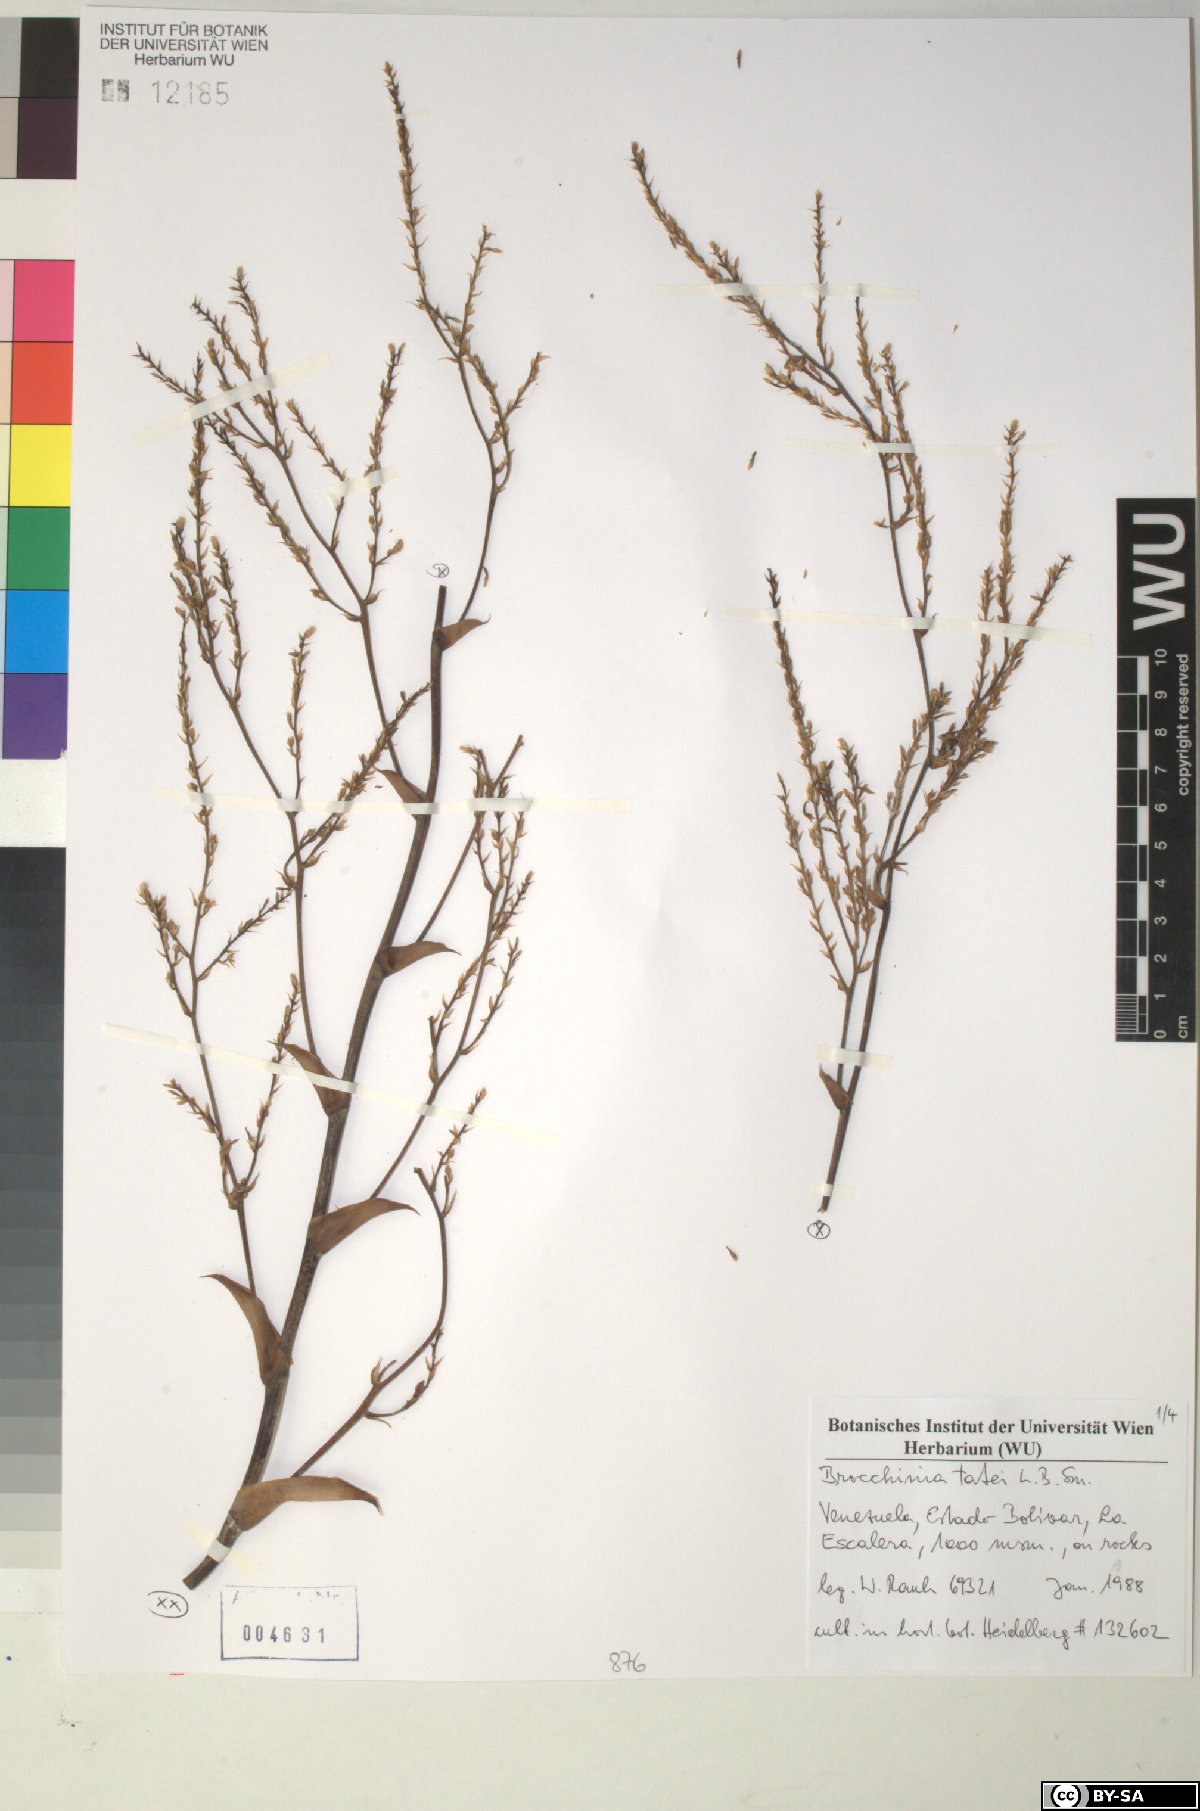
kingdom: Plantae
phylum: Tracheophyta
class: Liliopsida
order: Poales
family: Bromeliaceae
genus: Brocchinia
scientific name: Brocchinia tatei
